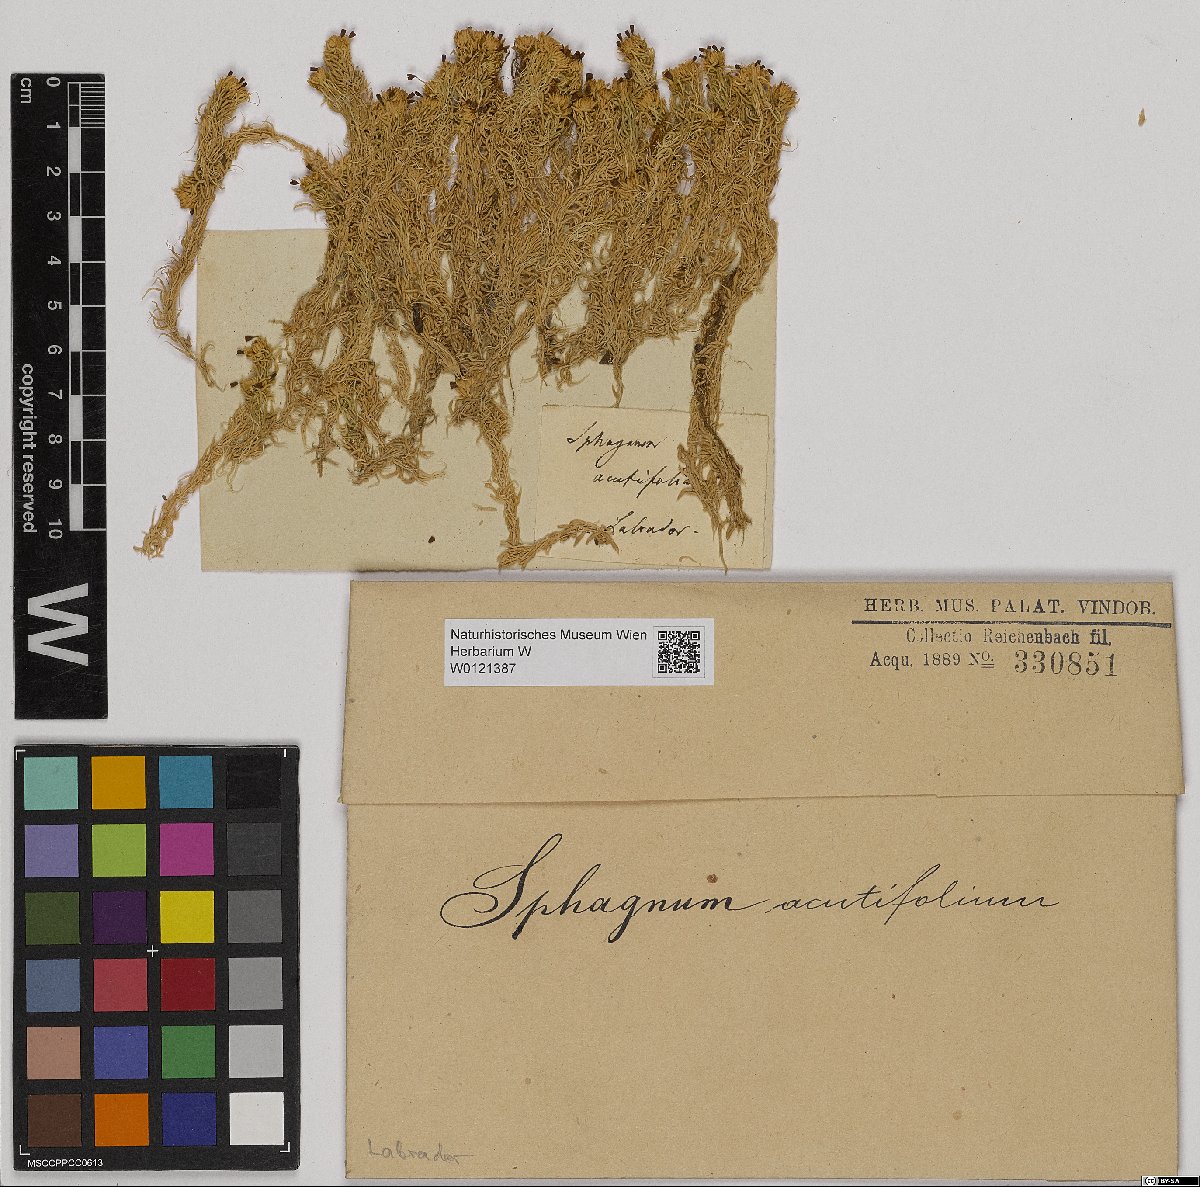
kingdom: Plantae
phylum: Bryophyta
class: Sphagnopsida
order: Sphagnales
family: Sphagnaceae
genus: Sphagnum
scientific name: Sphagnum capillifolium
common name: Small red peat moss
